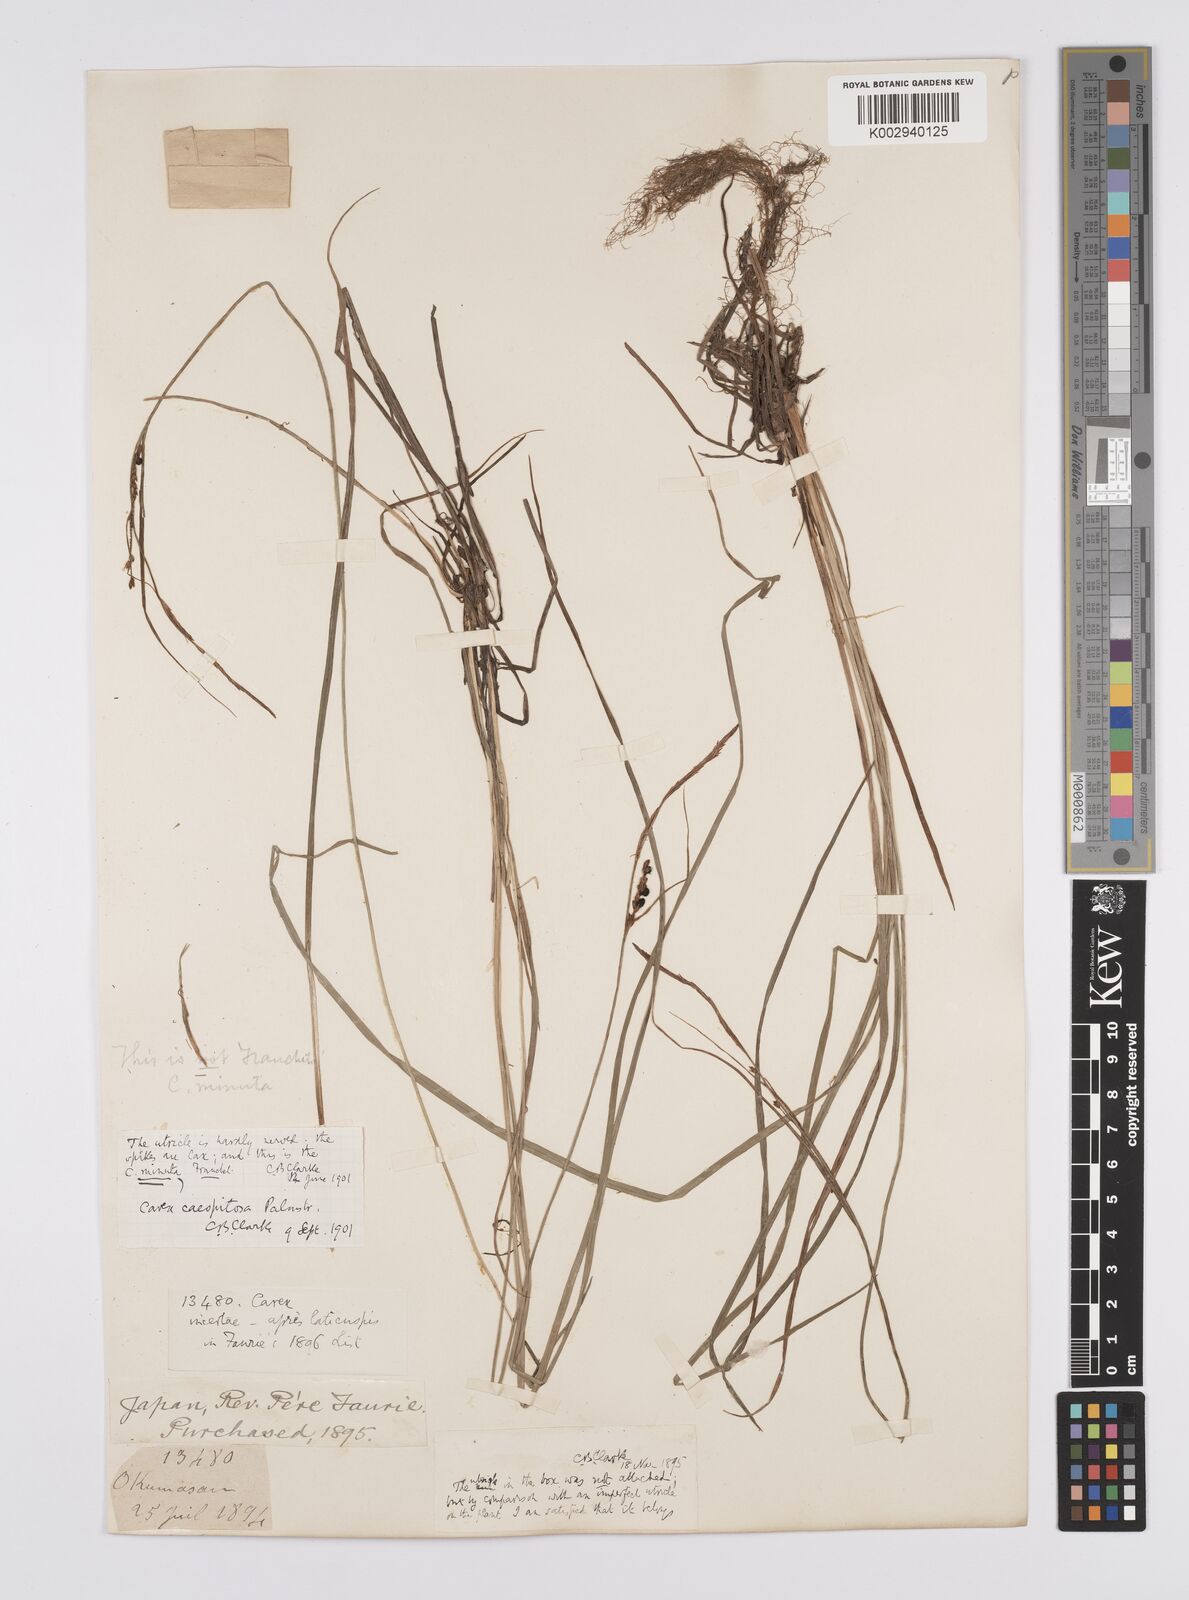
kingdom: Plantae
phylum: Tracheophyta
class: Liliopsida
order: Poales
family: Cyperaceae
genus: Carex
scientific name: Carex cespitosa
